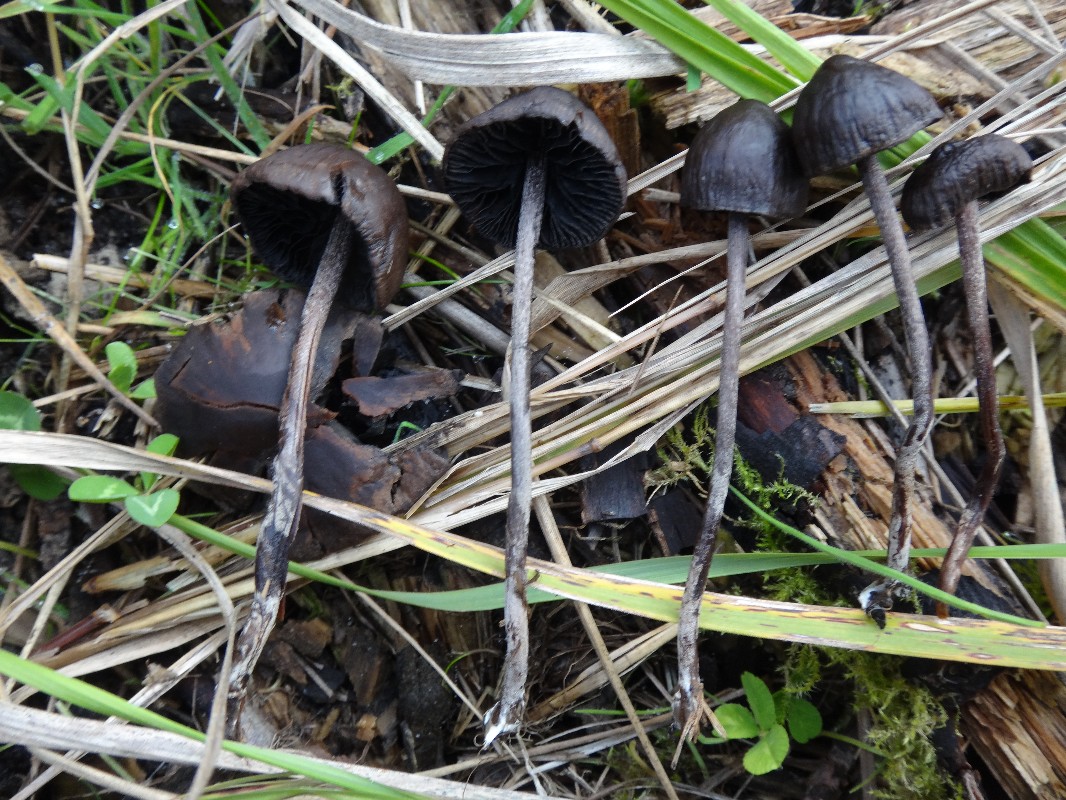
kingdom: Fungi
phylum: Basidiomycota
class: Agaricomycetes
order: Agaricales
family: Bolbitiaceae
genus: Panaeolus
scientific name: Panaeolus acuminatus
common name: høj glanshat
